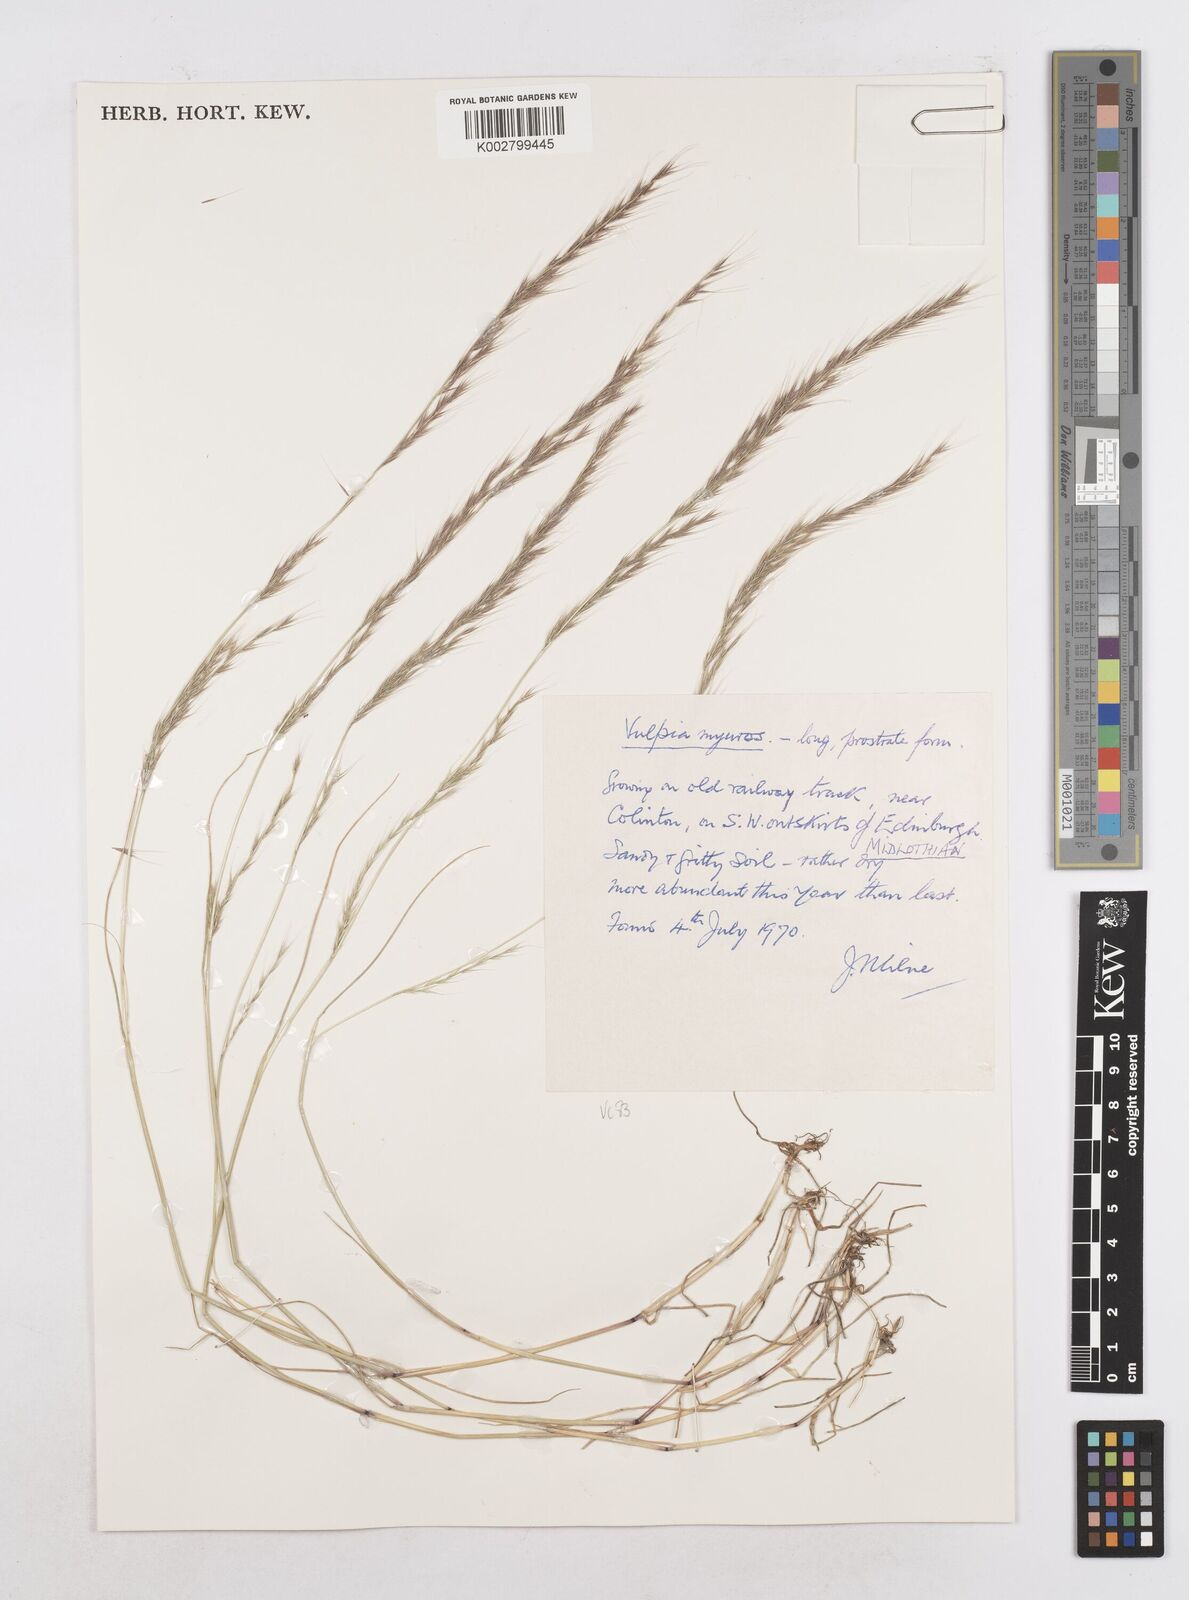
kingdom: Plantae
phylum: Tracheophyta
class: Liliopsida
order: Poales
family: Poaceae
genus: Festuca
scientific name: Festuca myuros
